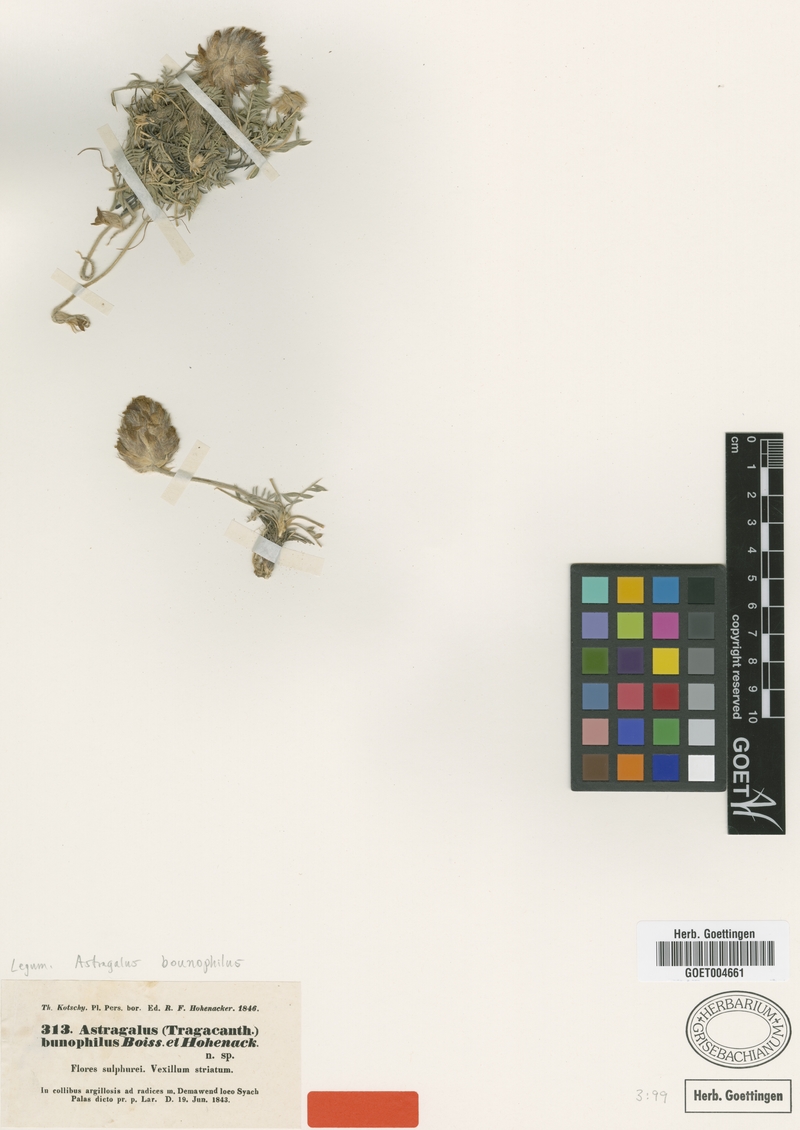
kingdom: Plantae
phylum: Tracheophyta
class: Magnoliopsida
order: Fabales
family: Fabaceae
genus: Astragalus
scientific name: Astragalus bounophilus
